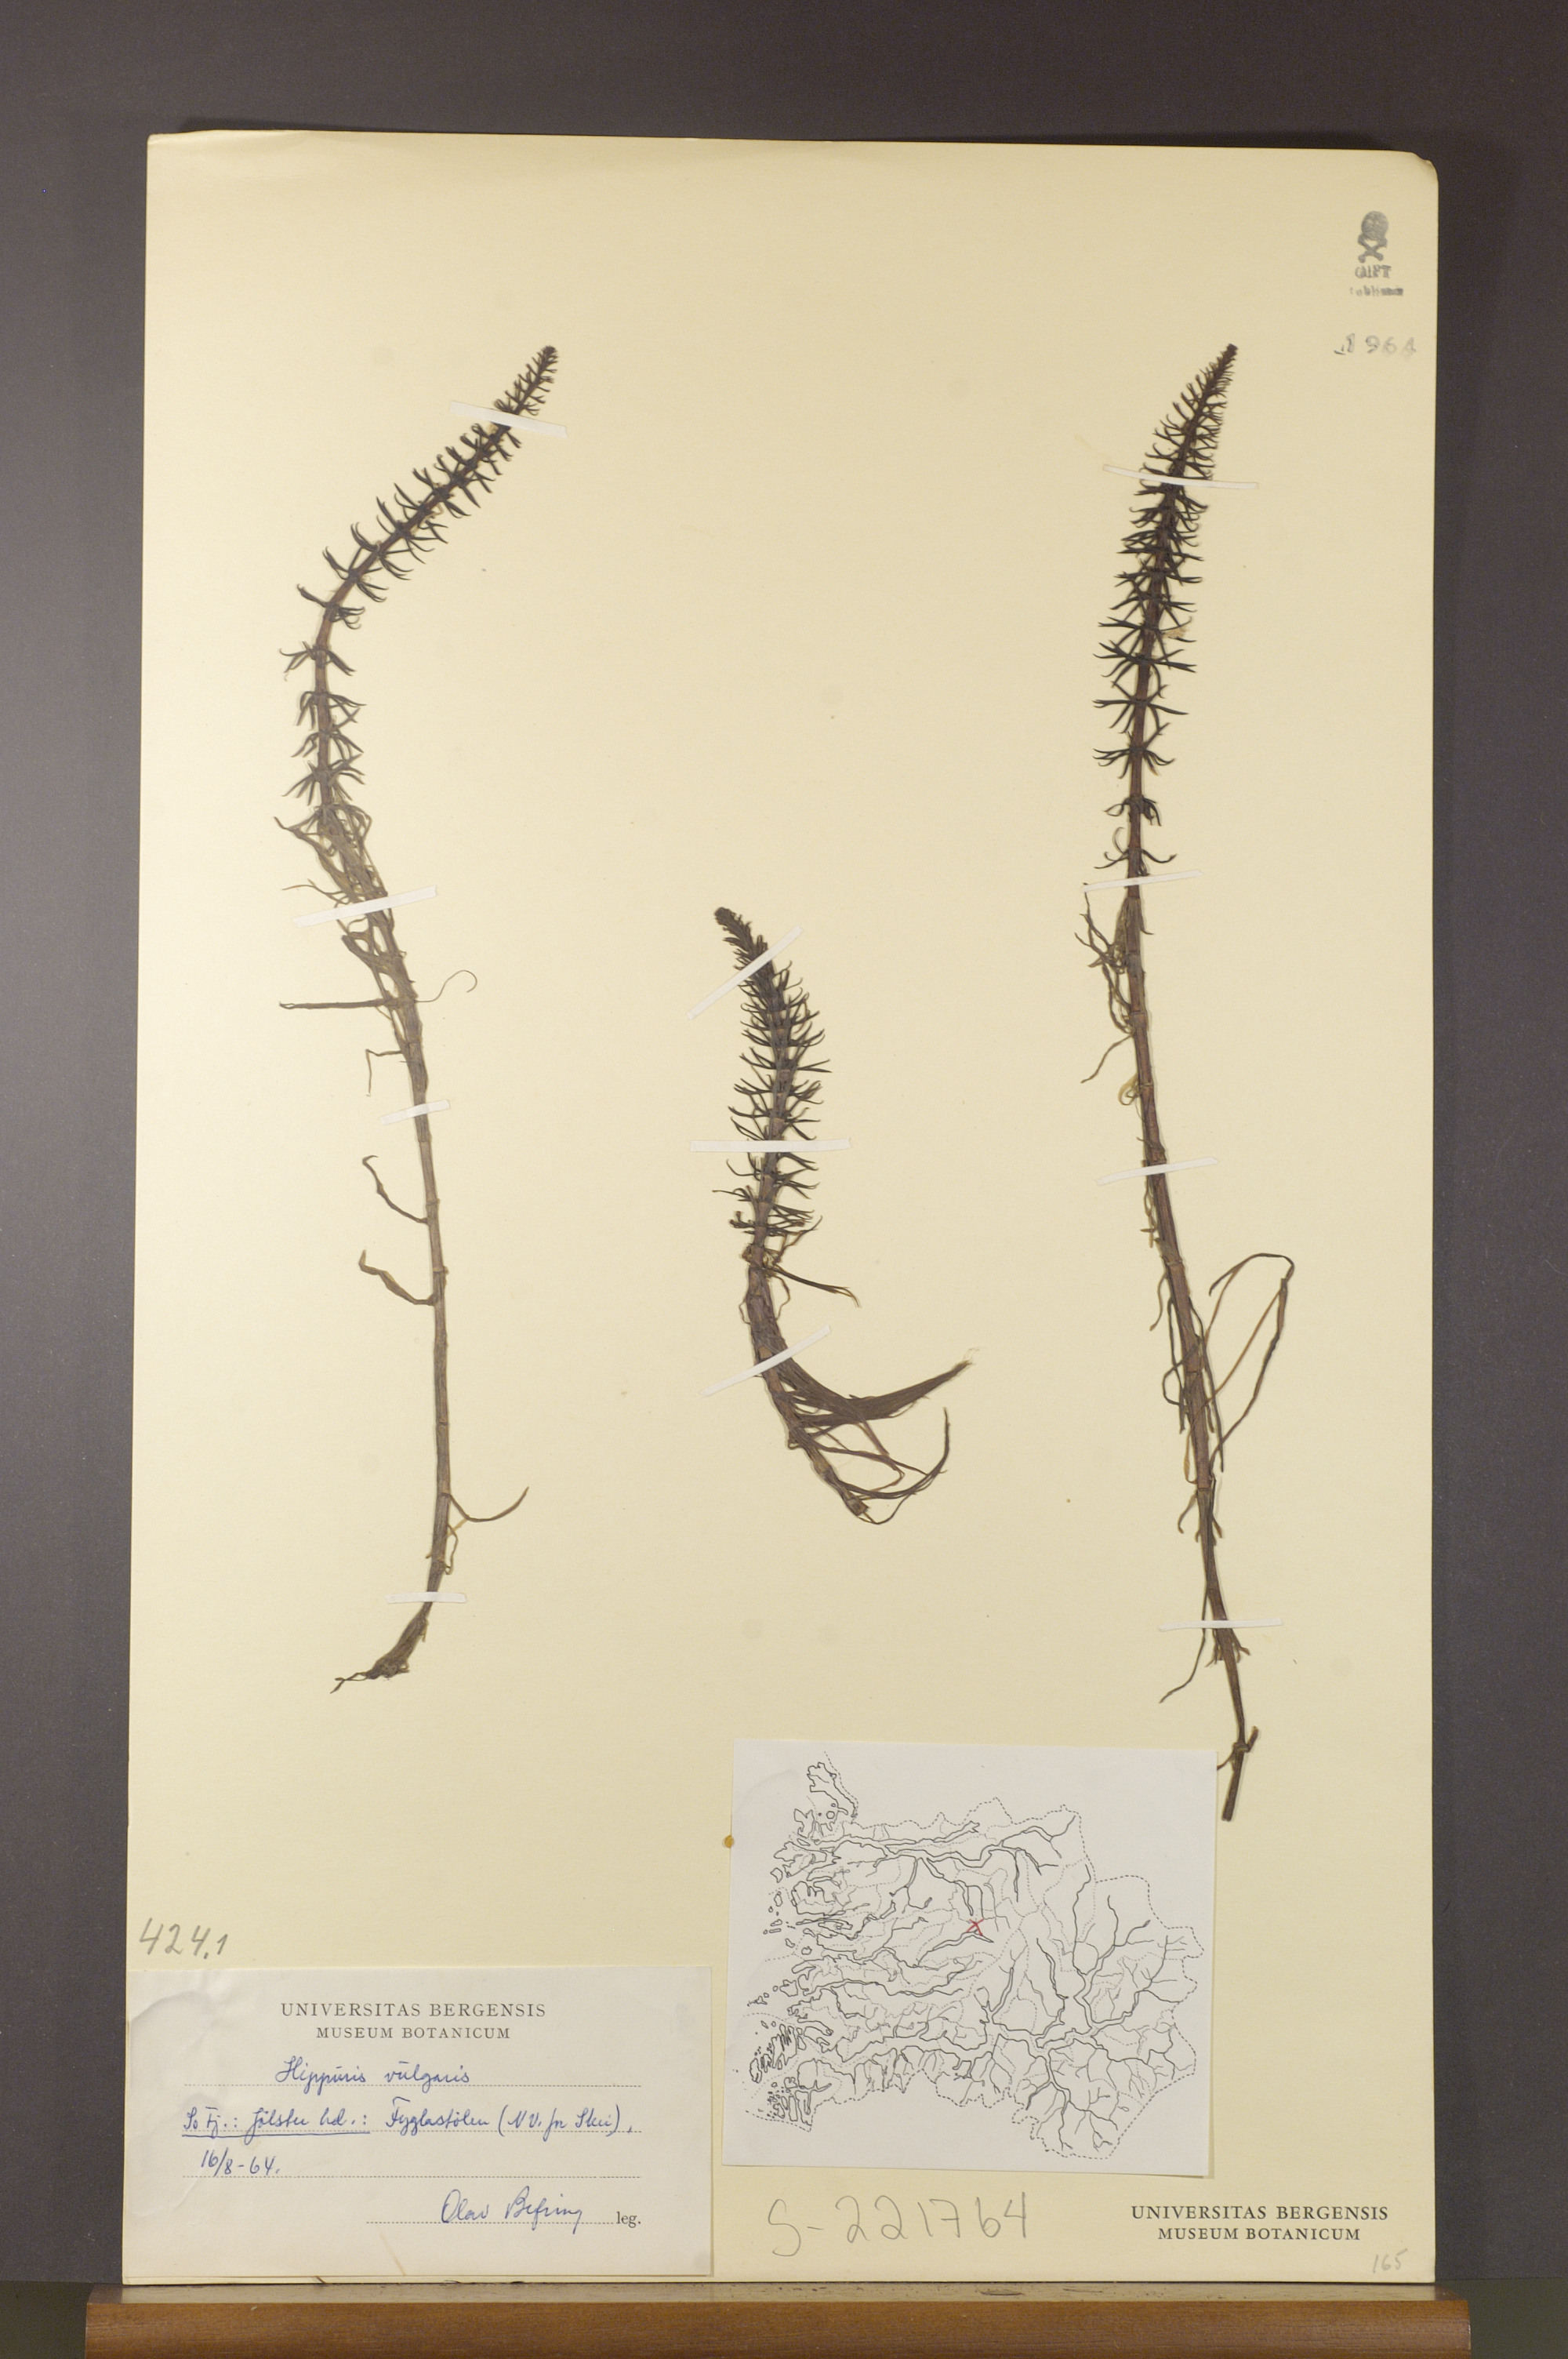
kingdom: Plantae
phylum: Tracheophyta
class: Magnoliopsida
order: Lamiales
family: Plantaginaceae
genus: Hippuris
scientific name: Hippuris vulgaris
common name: Mare's-tail
